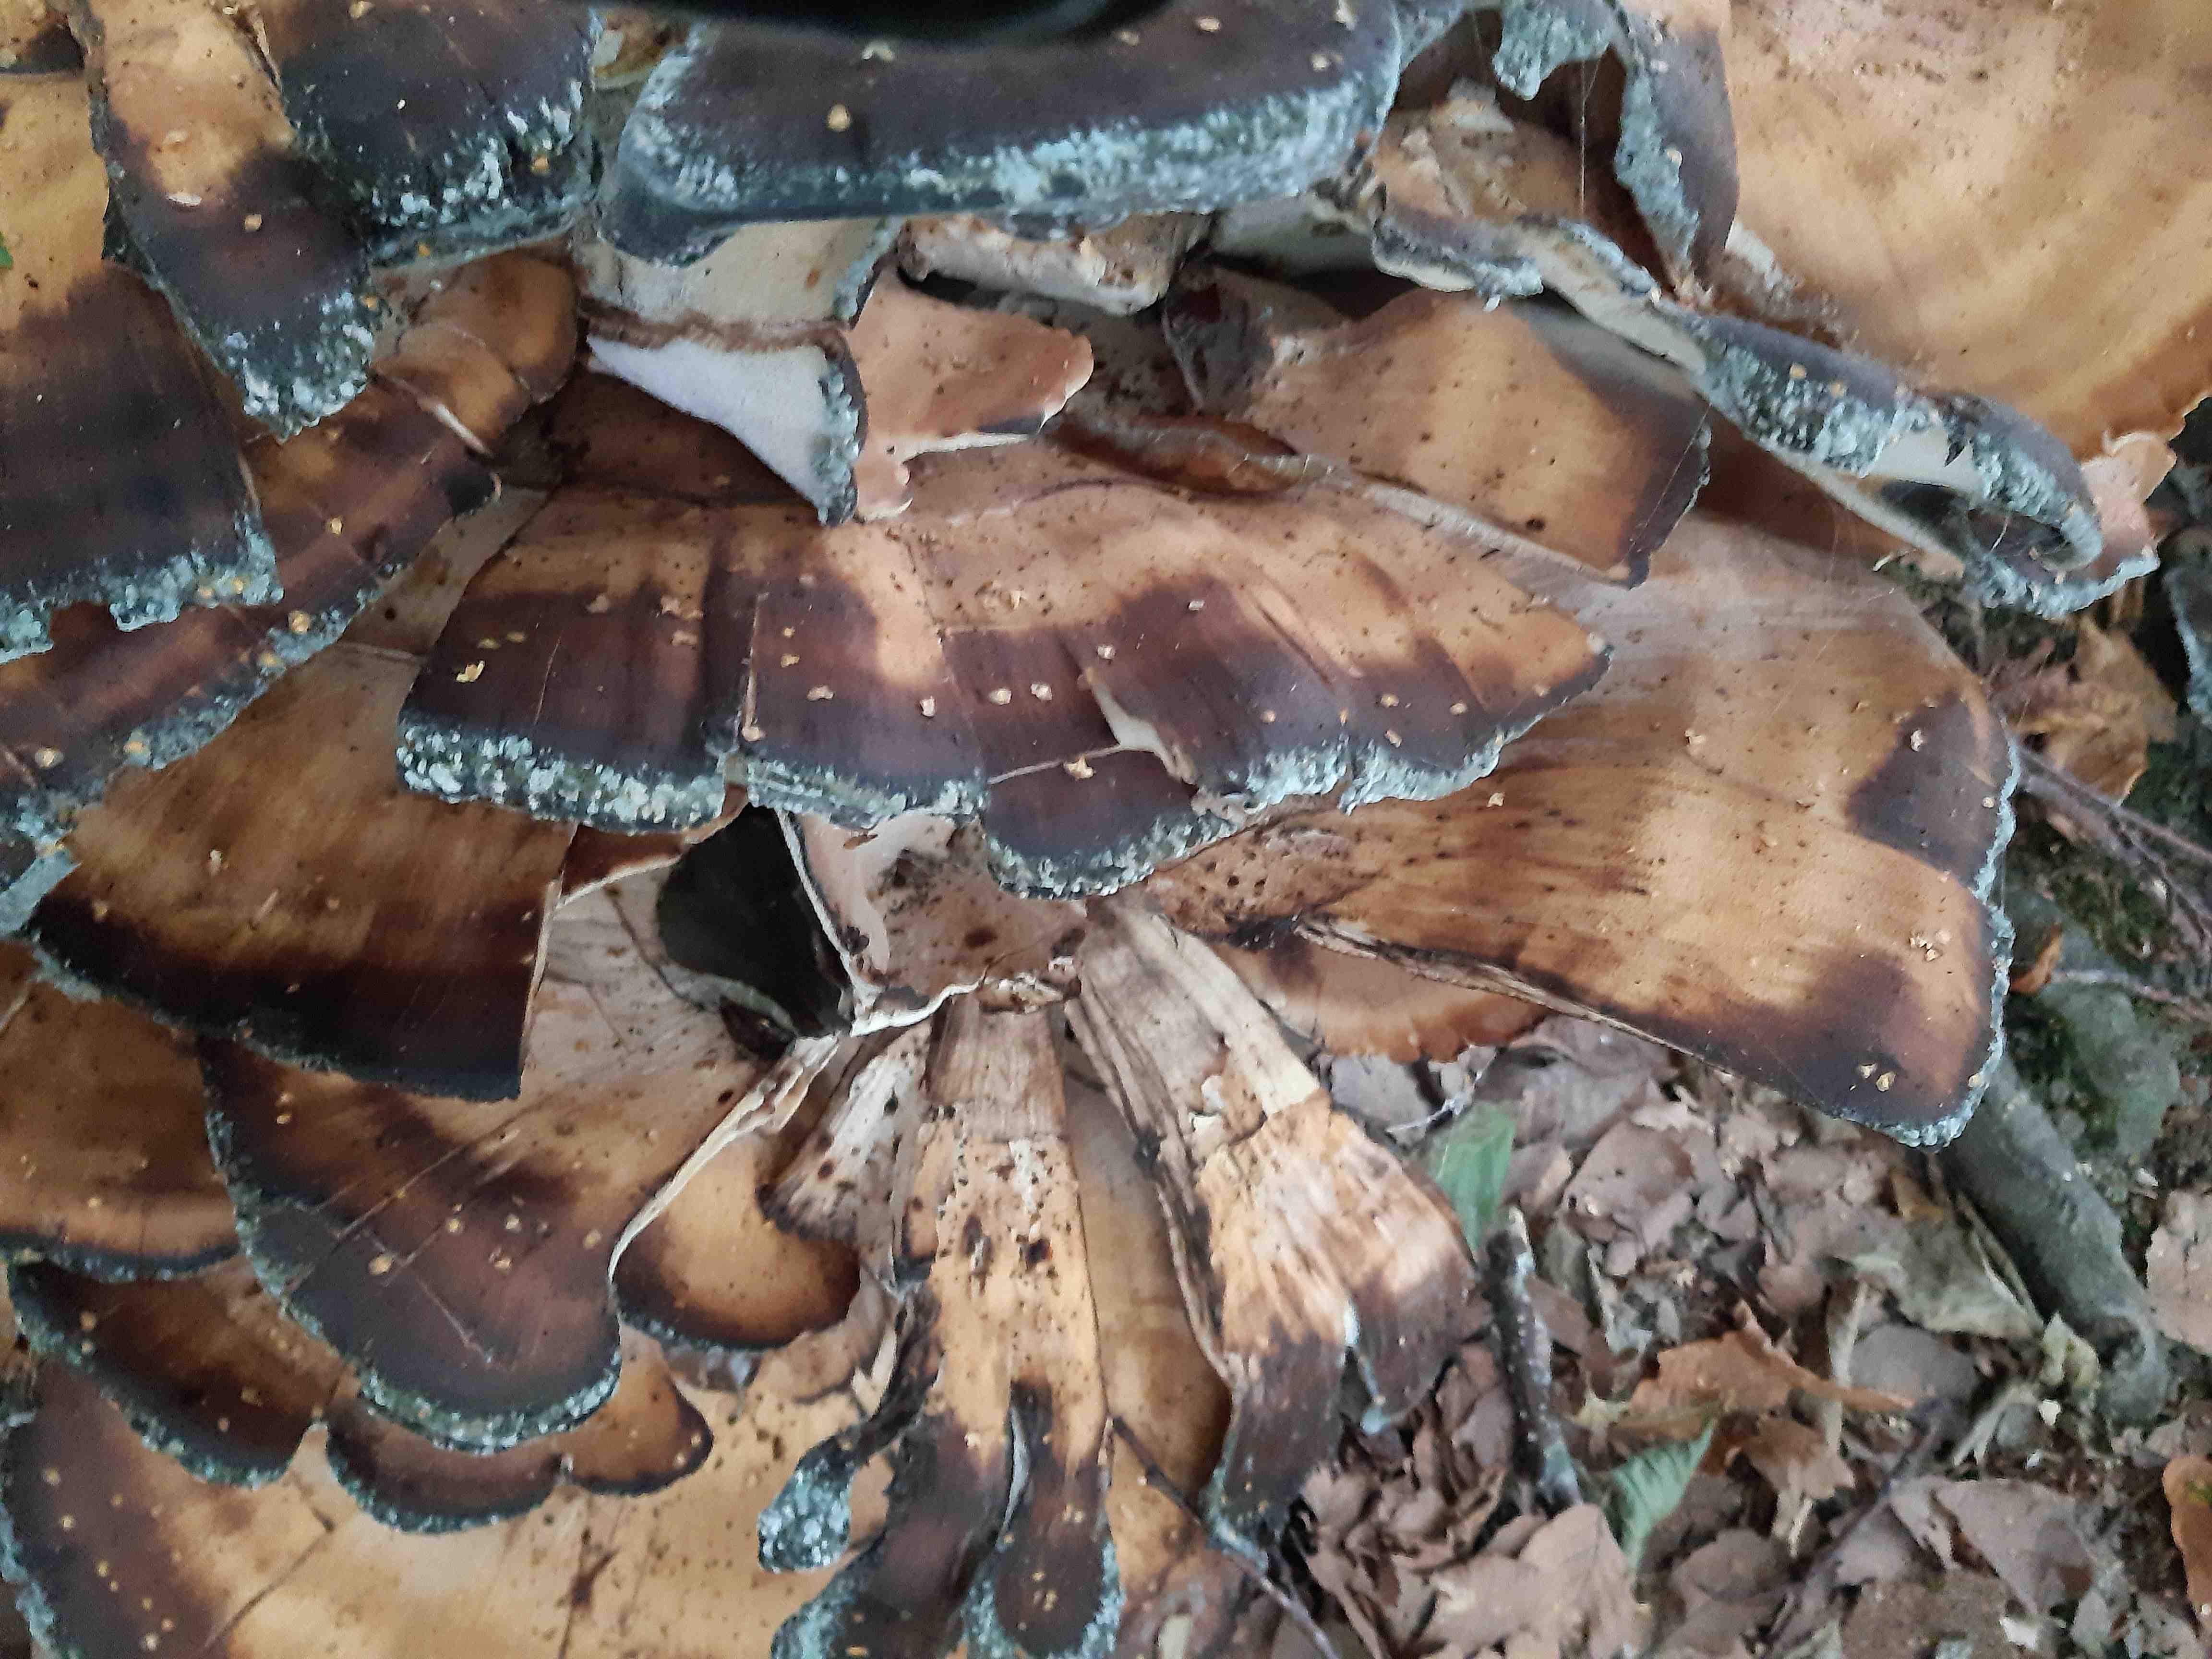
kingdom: Fungi
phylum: Basidiomycota
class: Agaricomycetes
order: Polyporales
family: Meripilaceae
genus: Meripilus
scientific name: Meripilus giganteus
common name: kæmpeporesvamp
